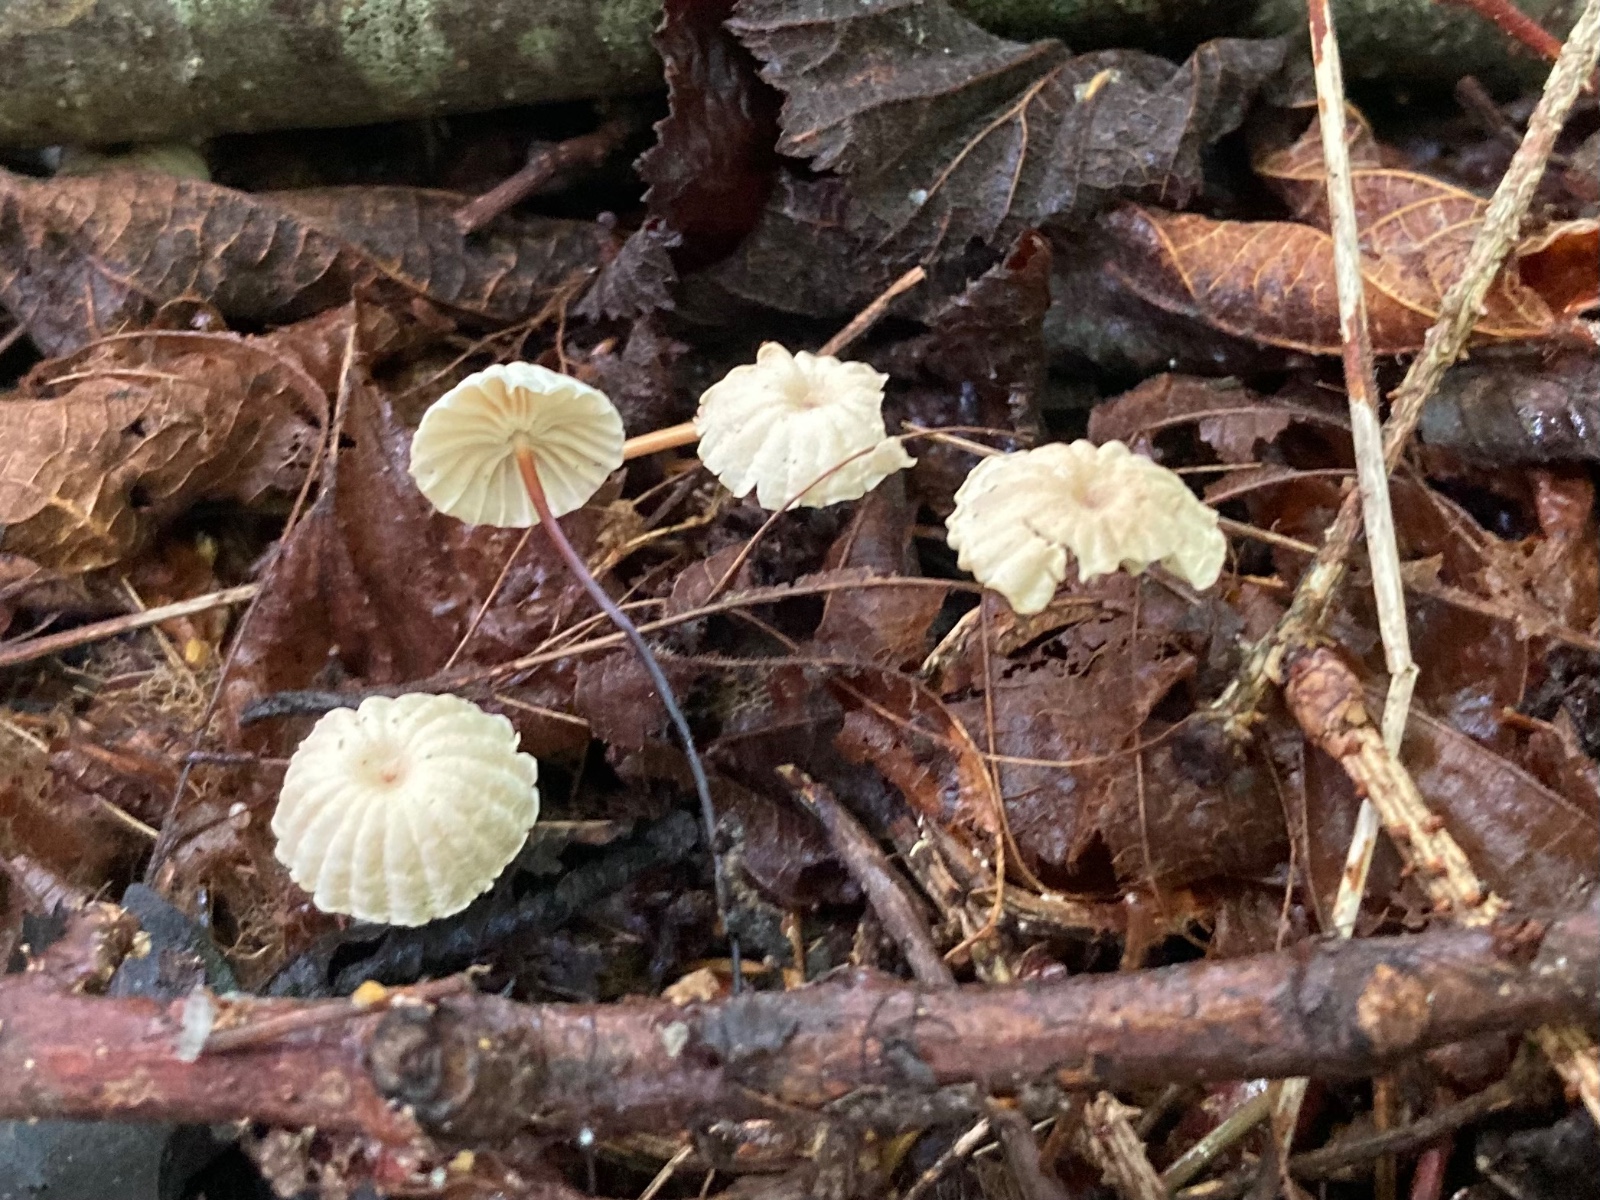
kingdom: Fungi
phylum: Basidiomycota
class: Agaricomycetes
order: Agaricales
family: Marasmiaceae
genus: Marasmius
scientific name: Marasmius rotula
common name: hjul-bruskhat
